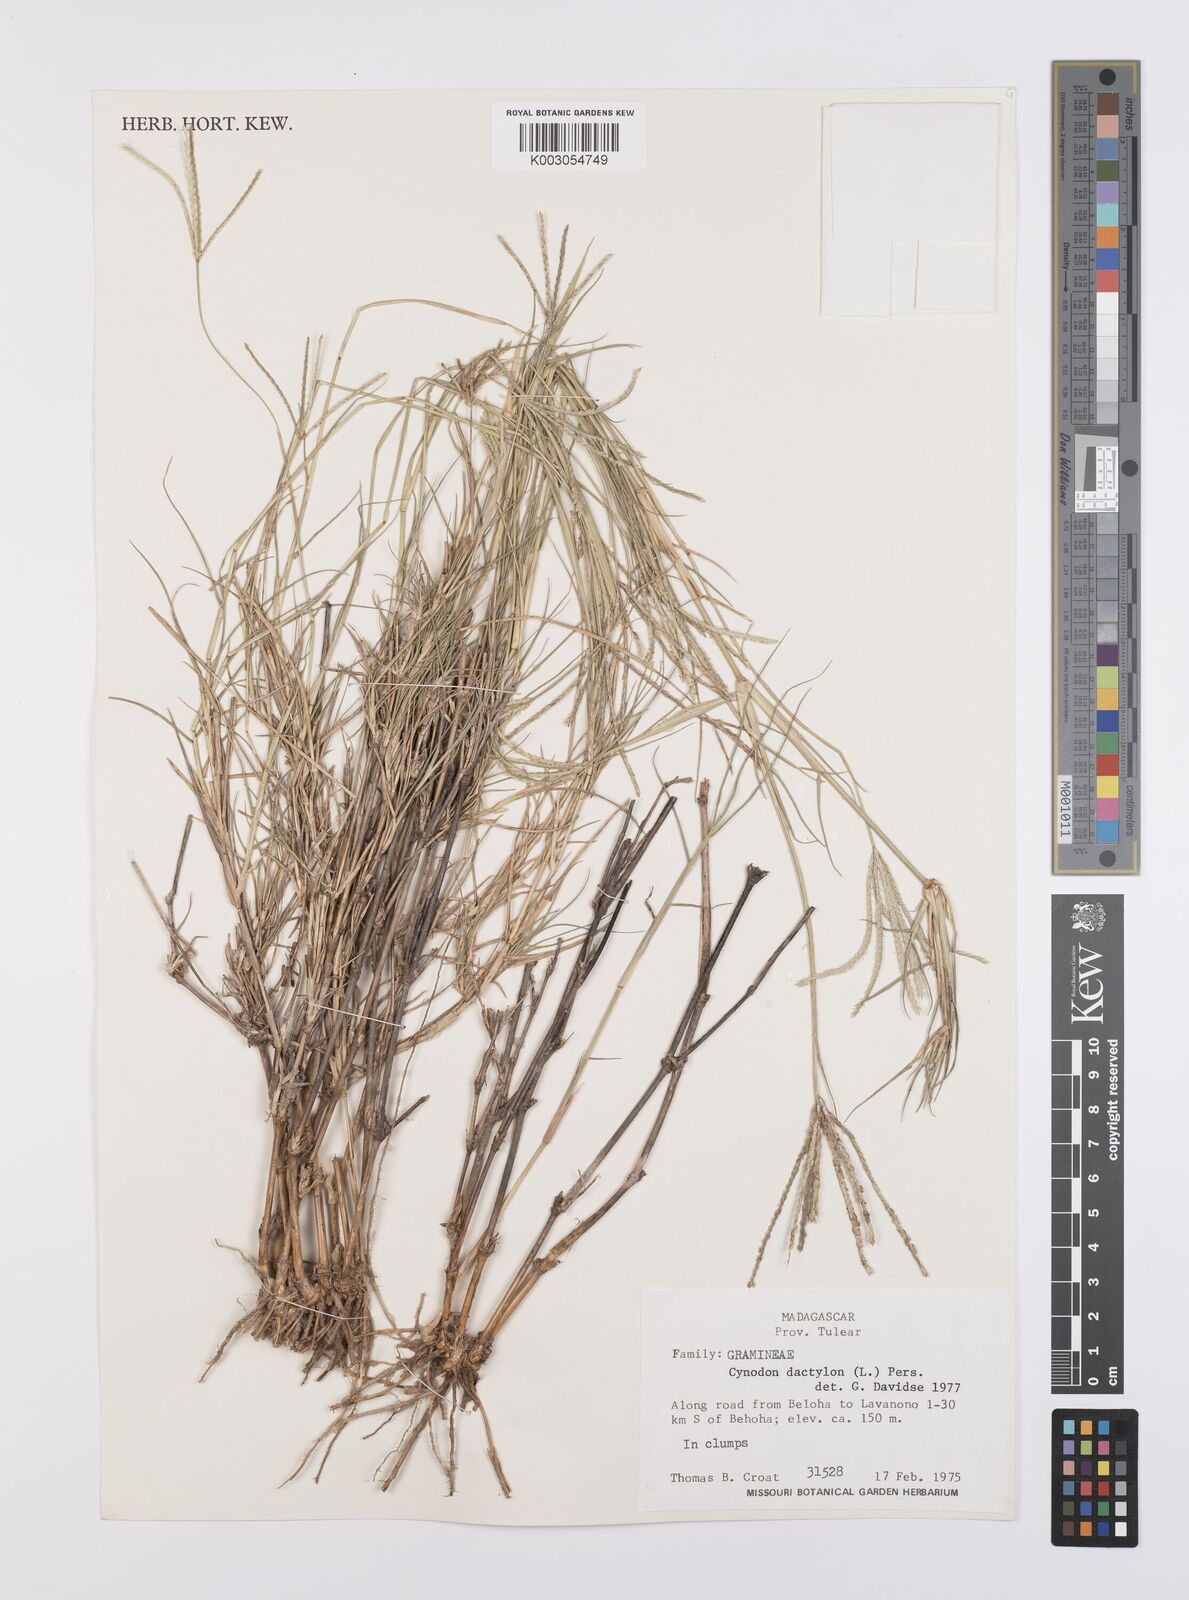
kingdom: Plantae
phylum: Tracheophyta
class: Liliopsida
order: Poales
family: Poaceae
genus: Cynodon
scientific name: Cynodon dactylon
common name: Bermuda grass
